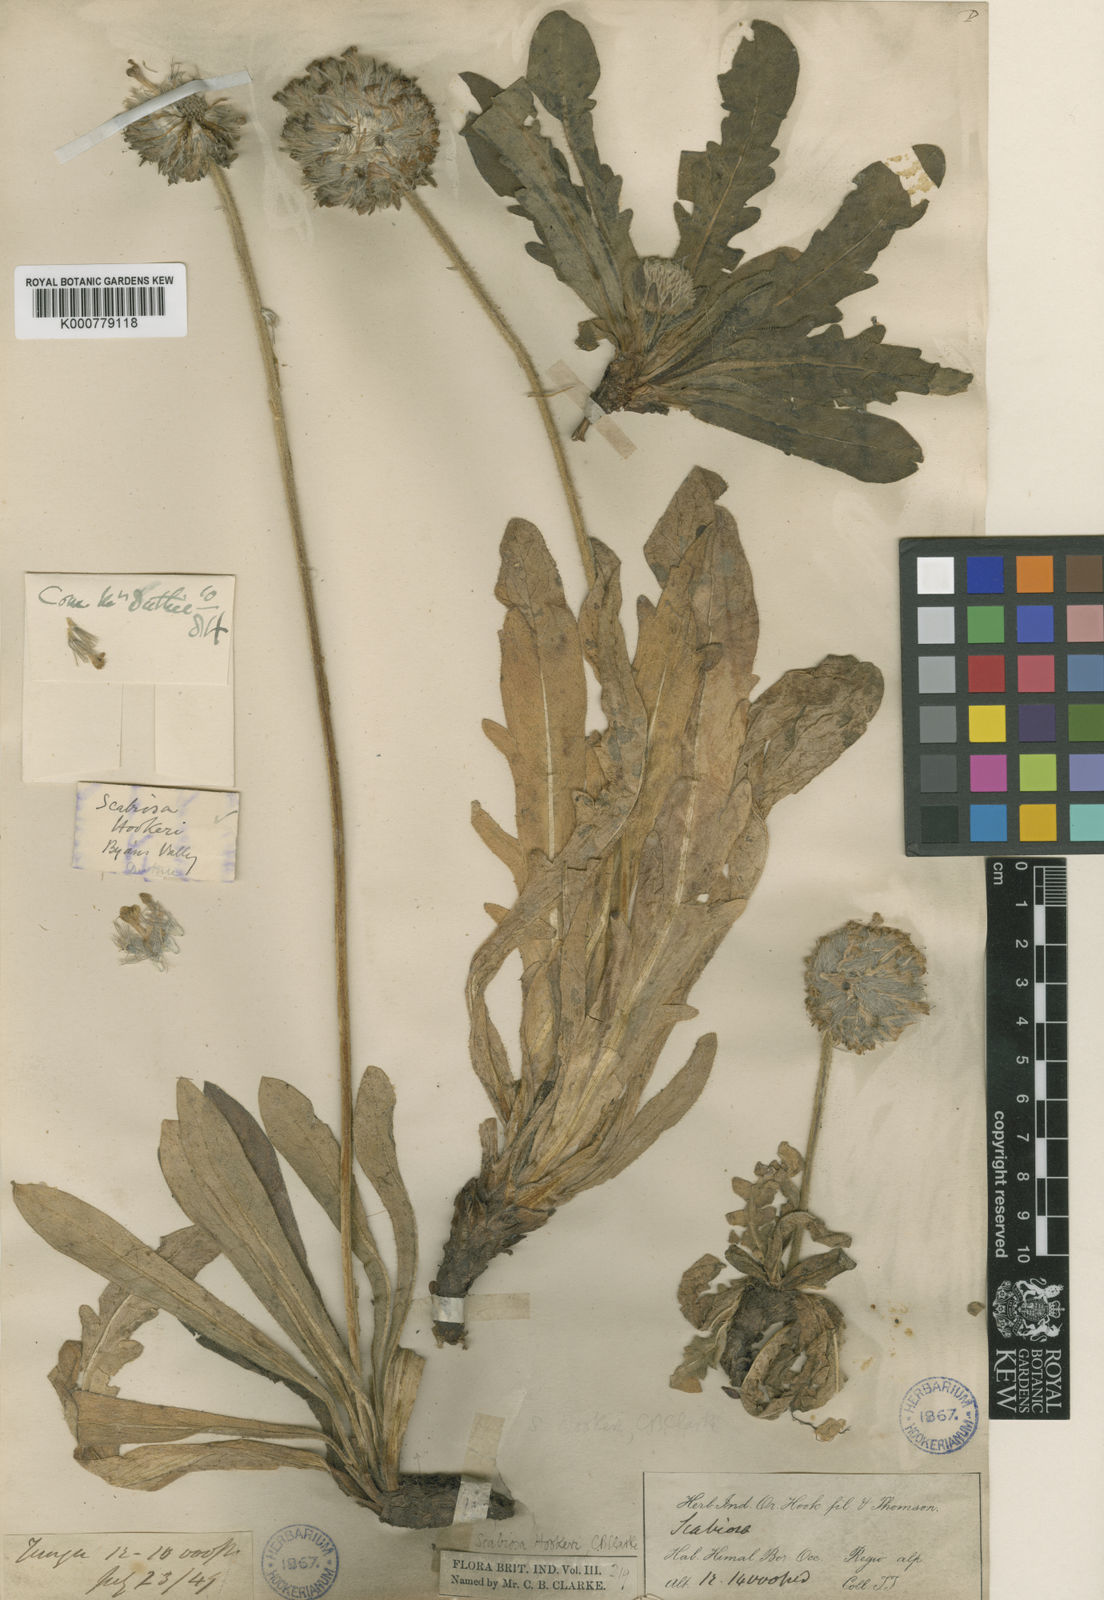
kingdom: Plantae
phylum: Tracheophyta
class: Magnoliopsida
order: Dipsacales
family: Caprifoliaceae
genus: Bassecoia
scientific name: Bassecoia hookeri
